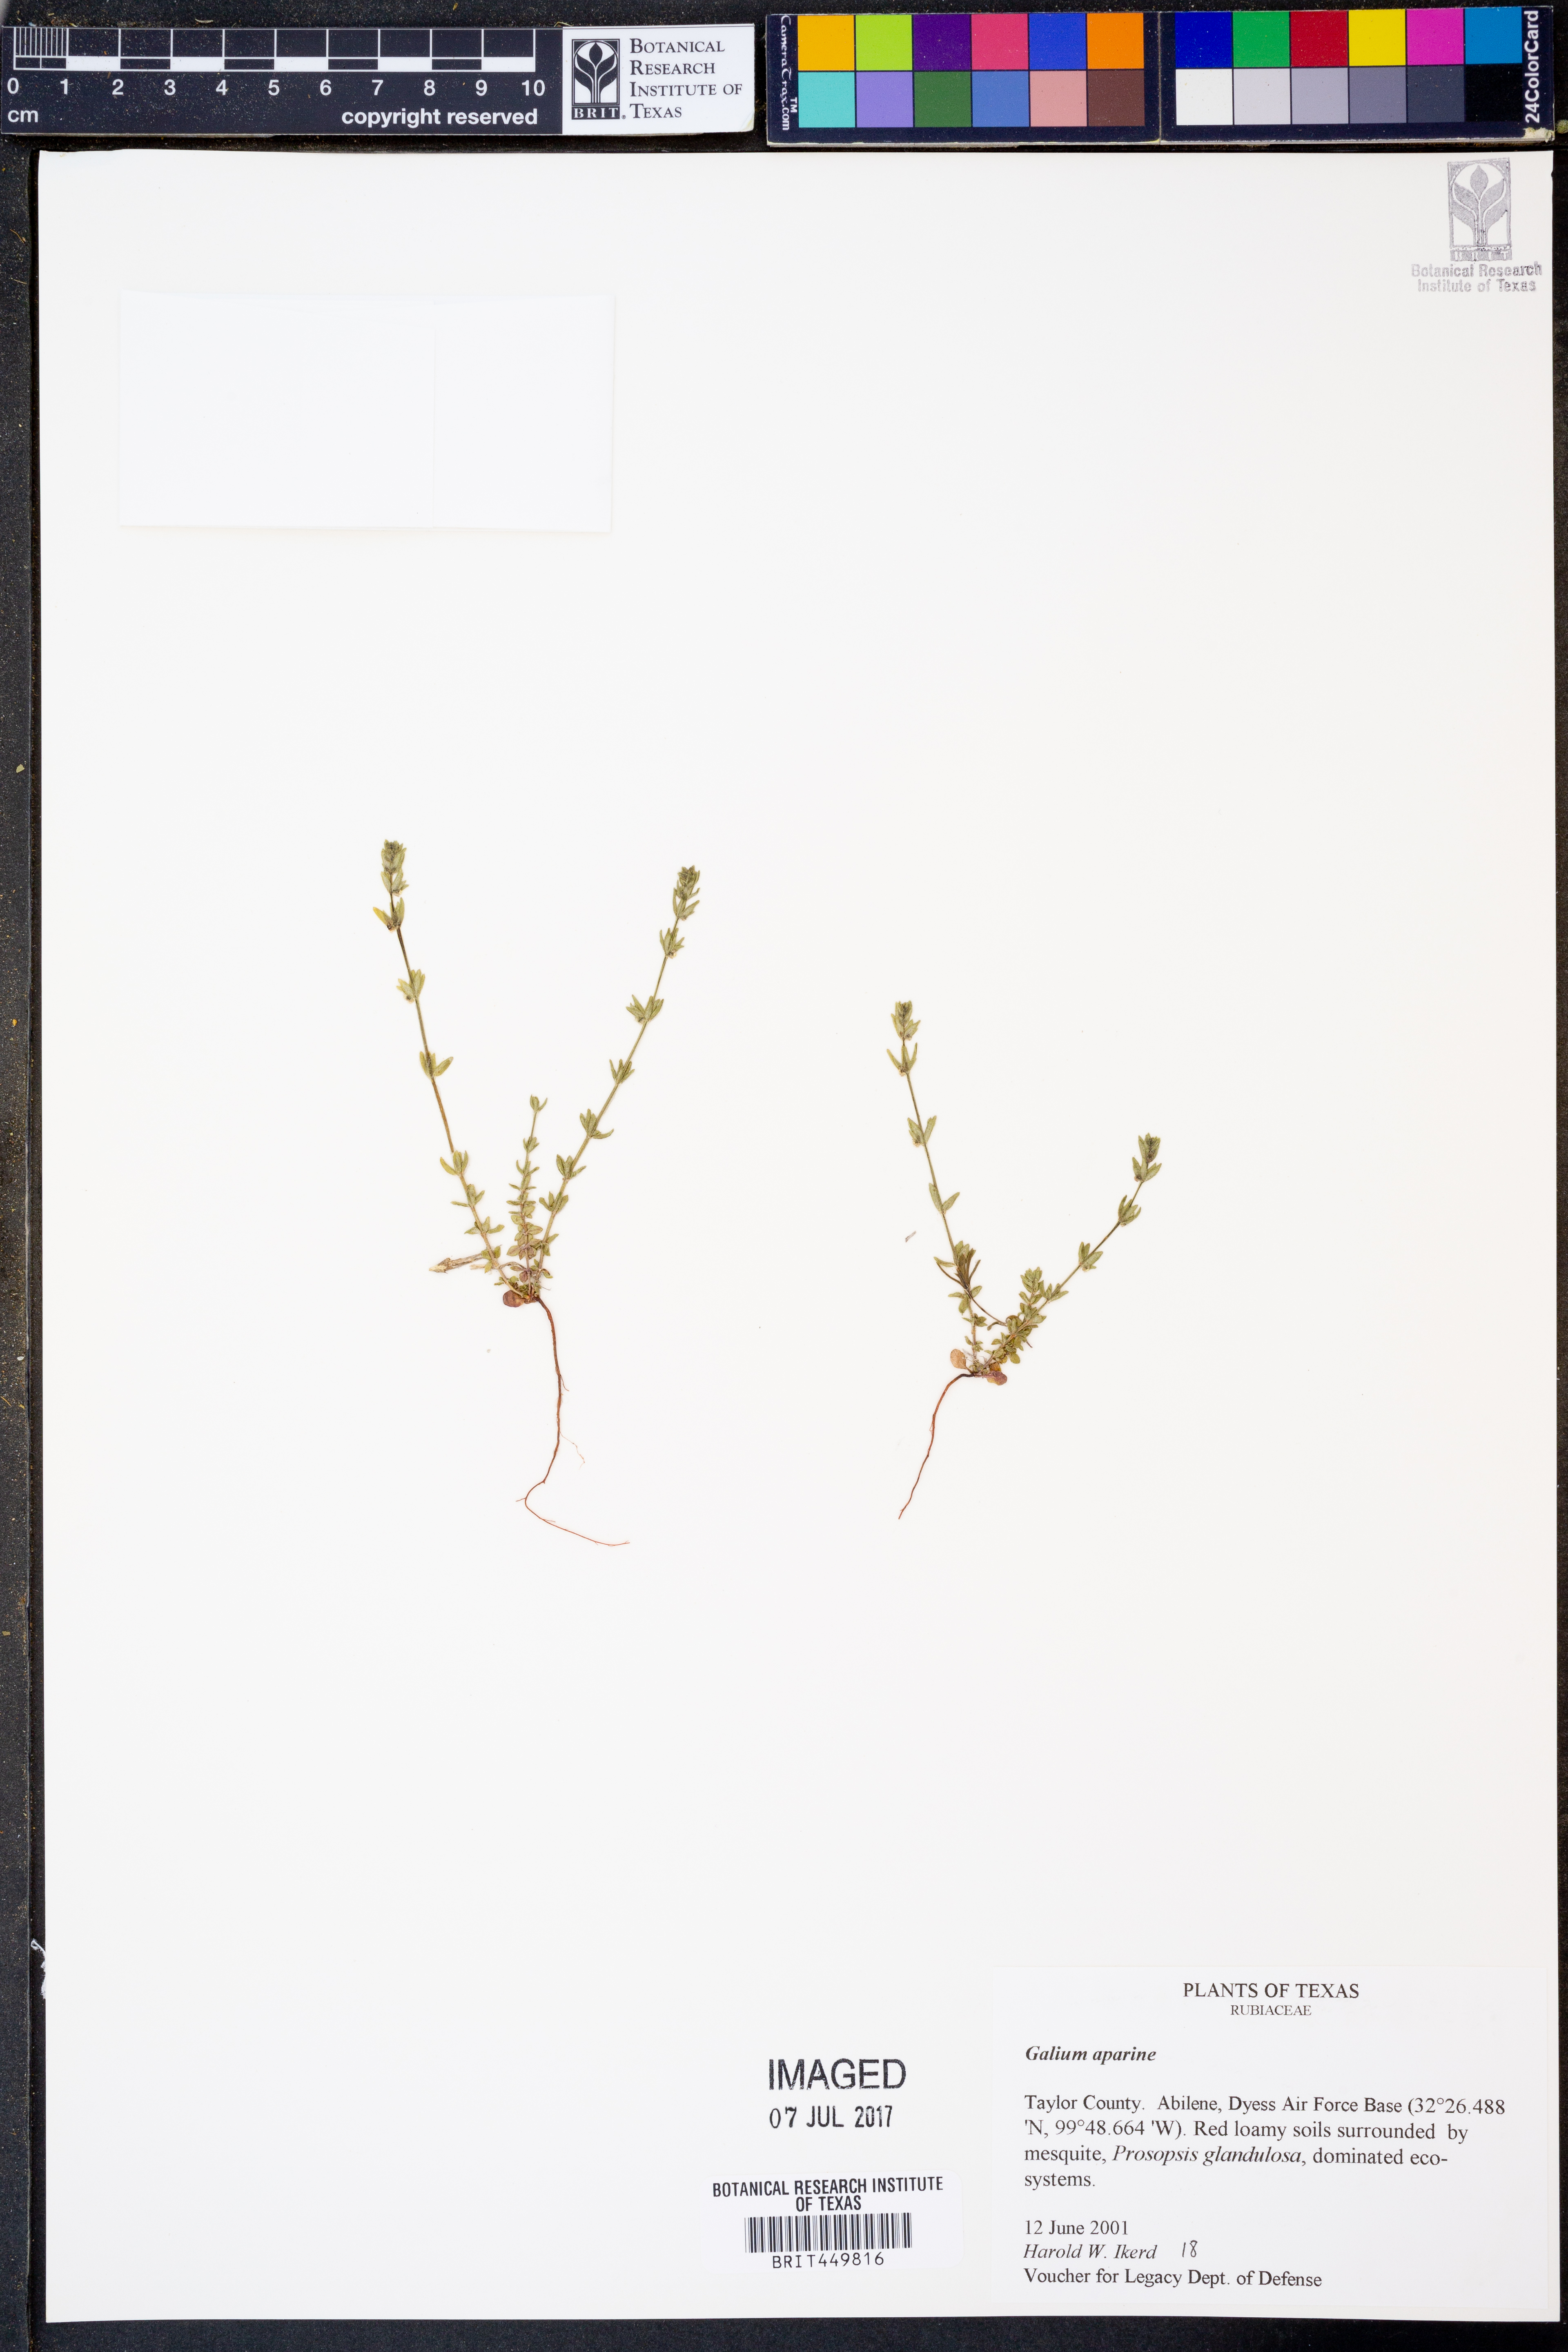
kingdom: Plantae
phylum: Tracheophyta
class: Magnoliopsida
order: Gentianales
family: Rubiaceae
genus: Galium
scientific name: Galium aparine
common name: Cleavers
